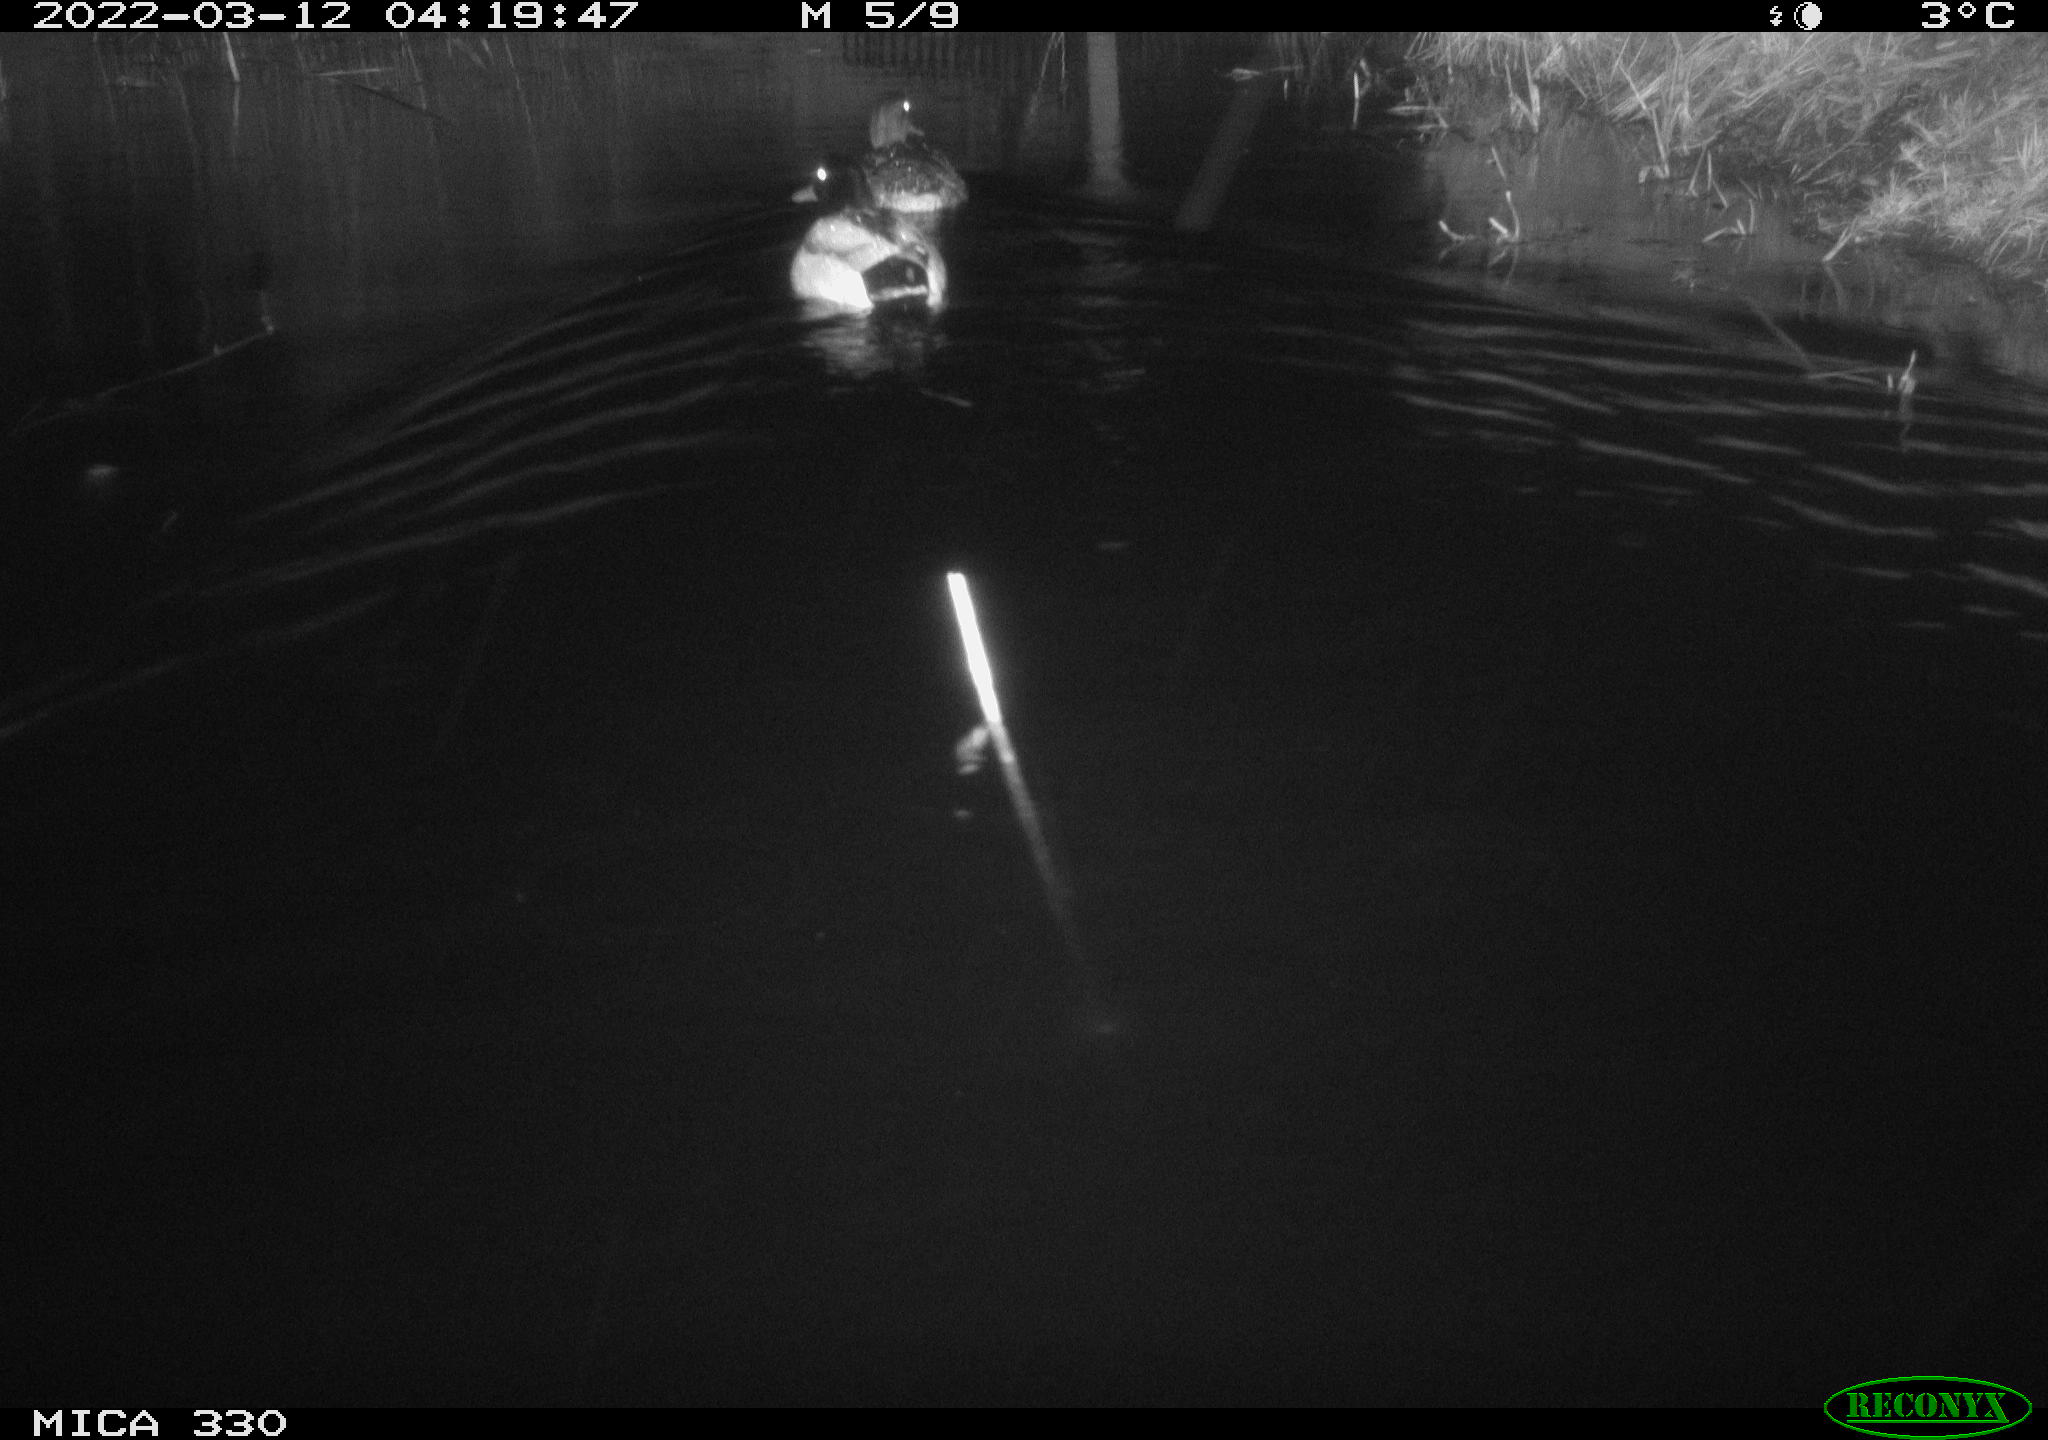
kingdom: Animalia
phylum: Chordata
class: Aves
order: Anseriformes
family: Anatidae
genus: Anas
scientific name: Anas platyrhynchos
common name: Mallard
